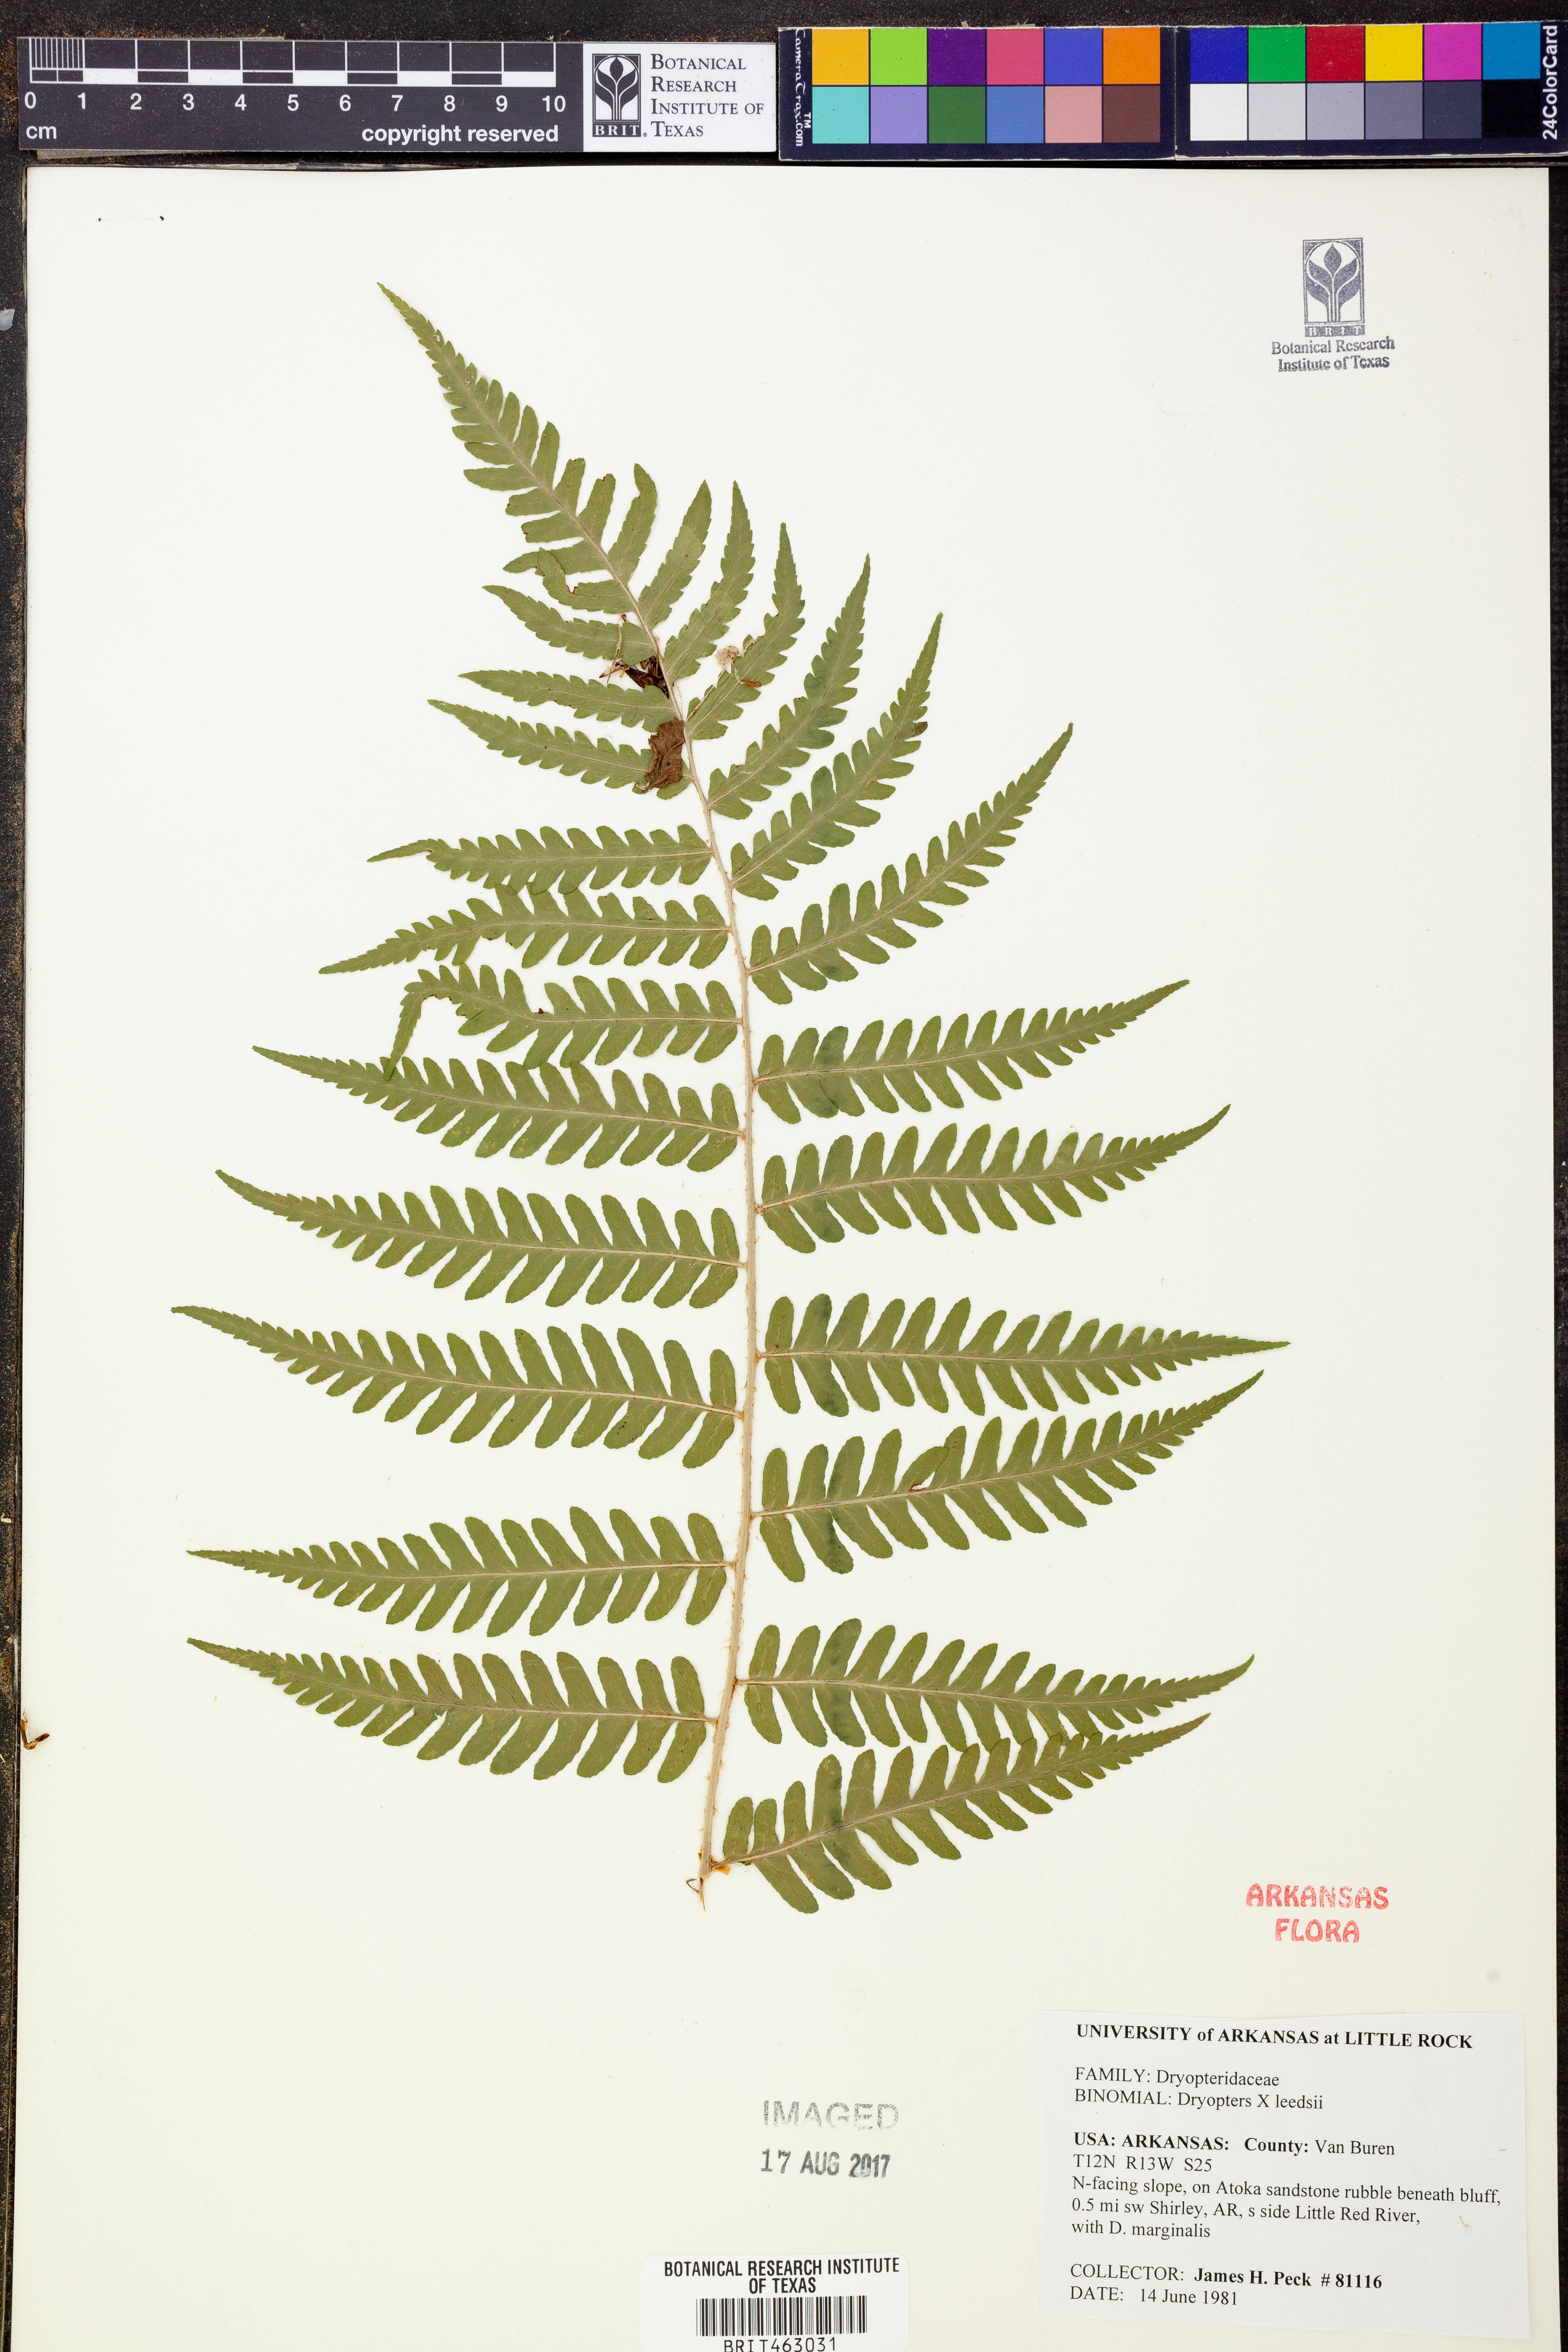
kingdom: Plantae
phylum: Tracheophyta
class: Polypodiopsida
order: Polypodiales
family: Dryopteridaceae
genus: Dryopteris
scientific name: Dryopteris
